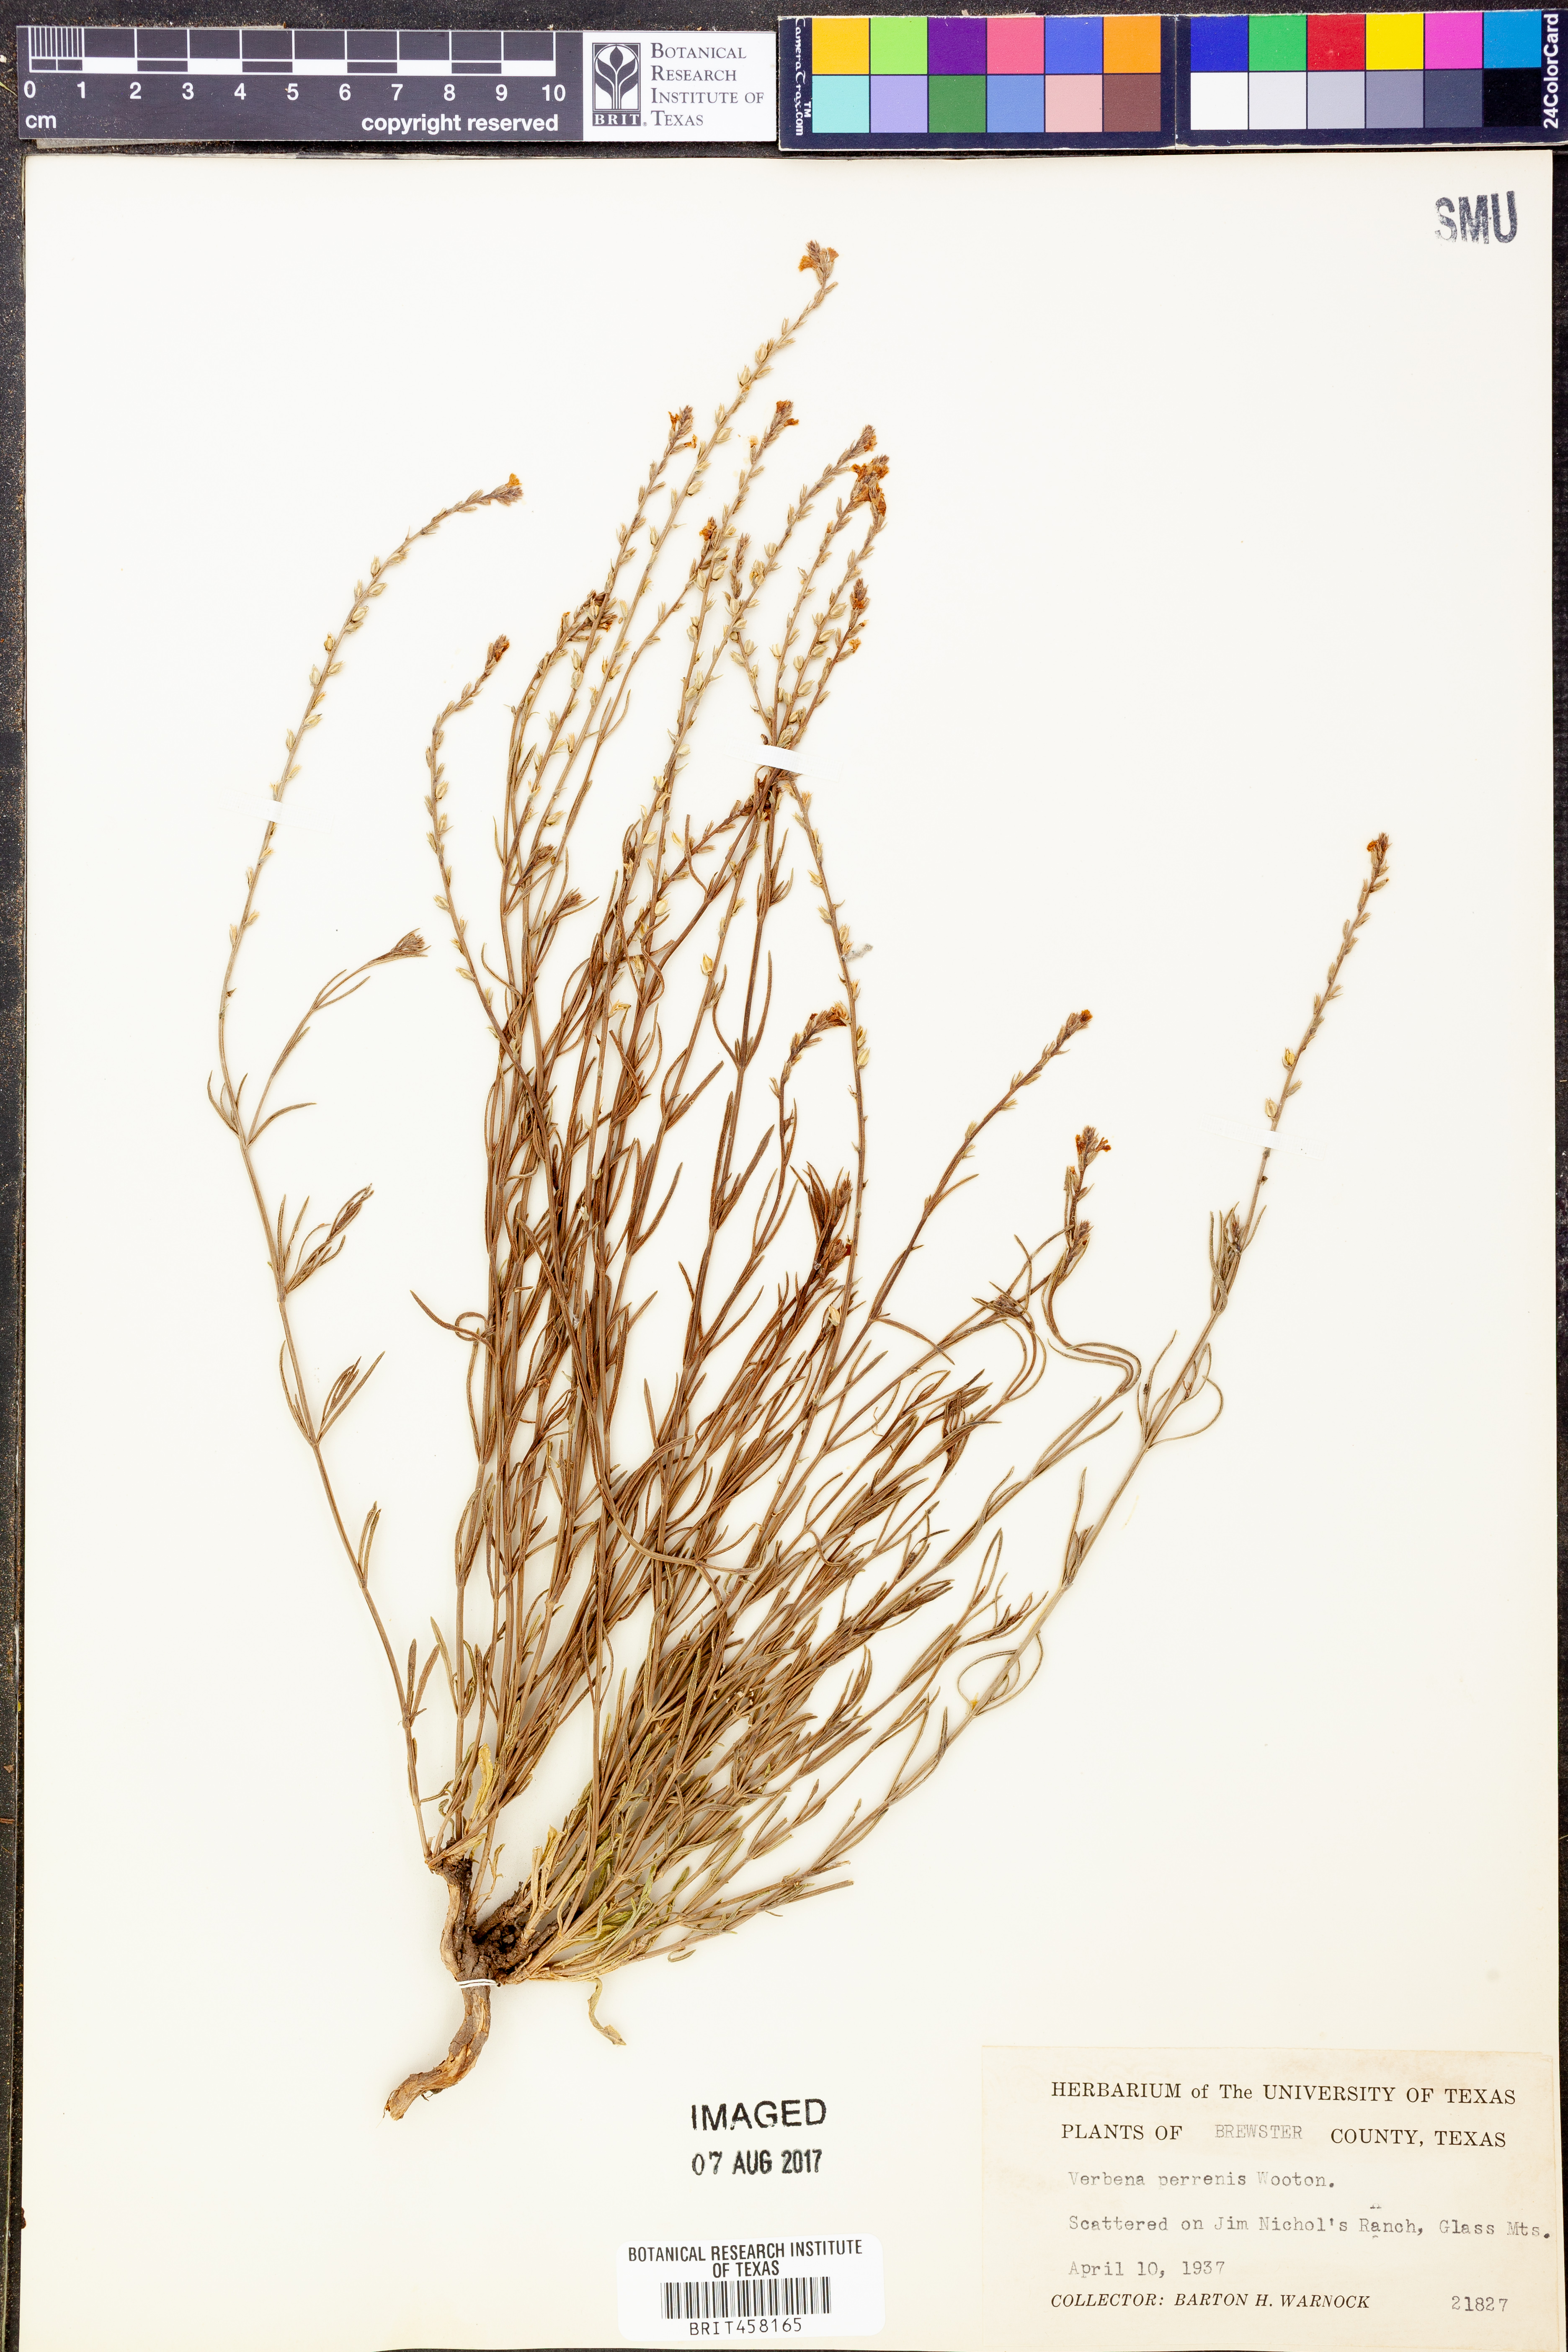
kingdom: Plantae
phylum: Tracheophyta
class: Magnoliopsida
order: Lamiales
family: Verbenaceae
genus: Verbena
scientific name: Verbena perennis
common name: Pin-leaf vervain
